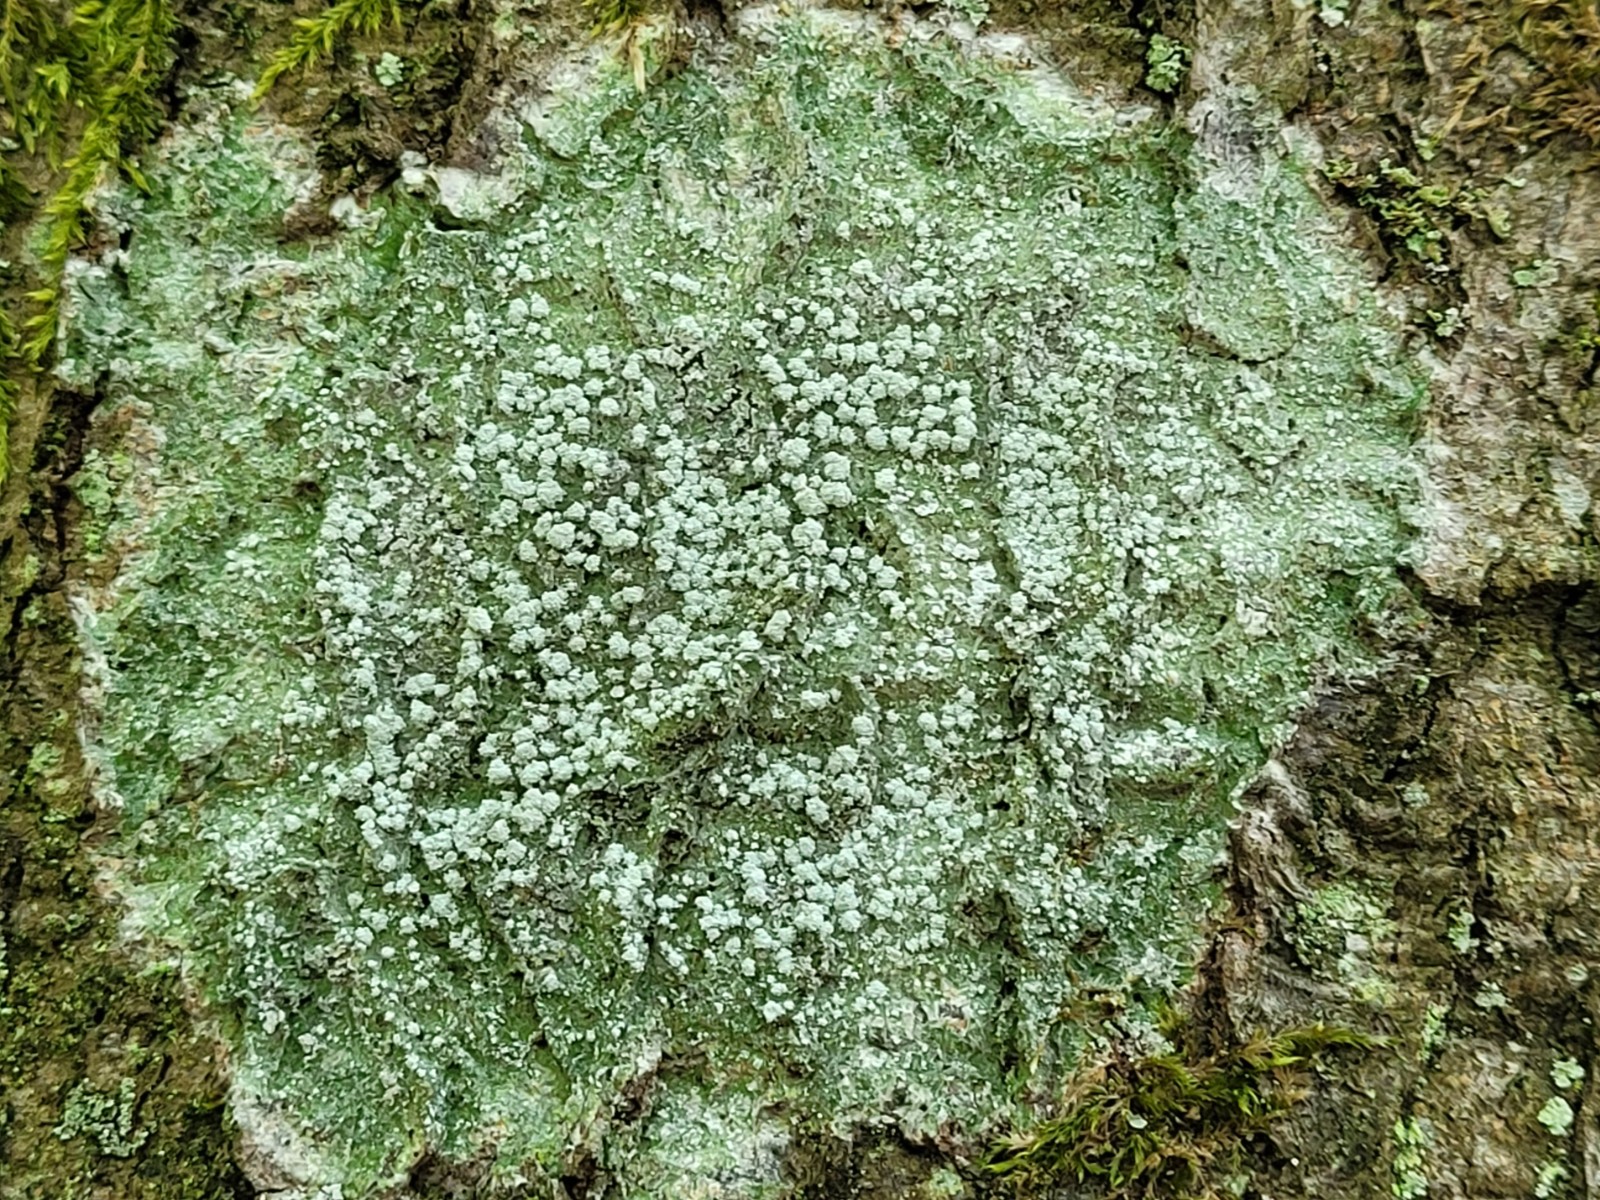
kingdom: Fungi
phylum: Ascomycota
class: Lecanoromycetes
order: Pertusariales
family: Pertusariaceae
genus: Lepra
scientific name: Lepra amara
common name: bitter prikvortelav
